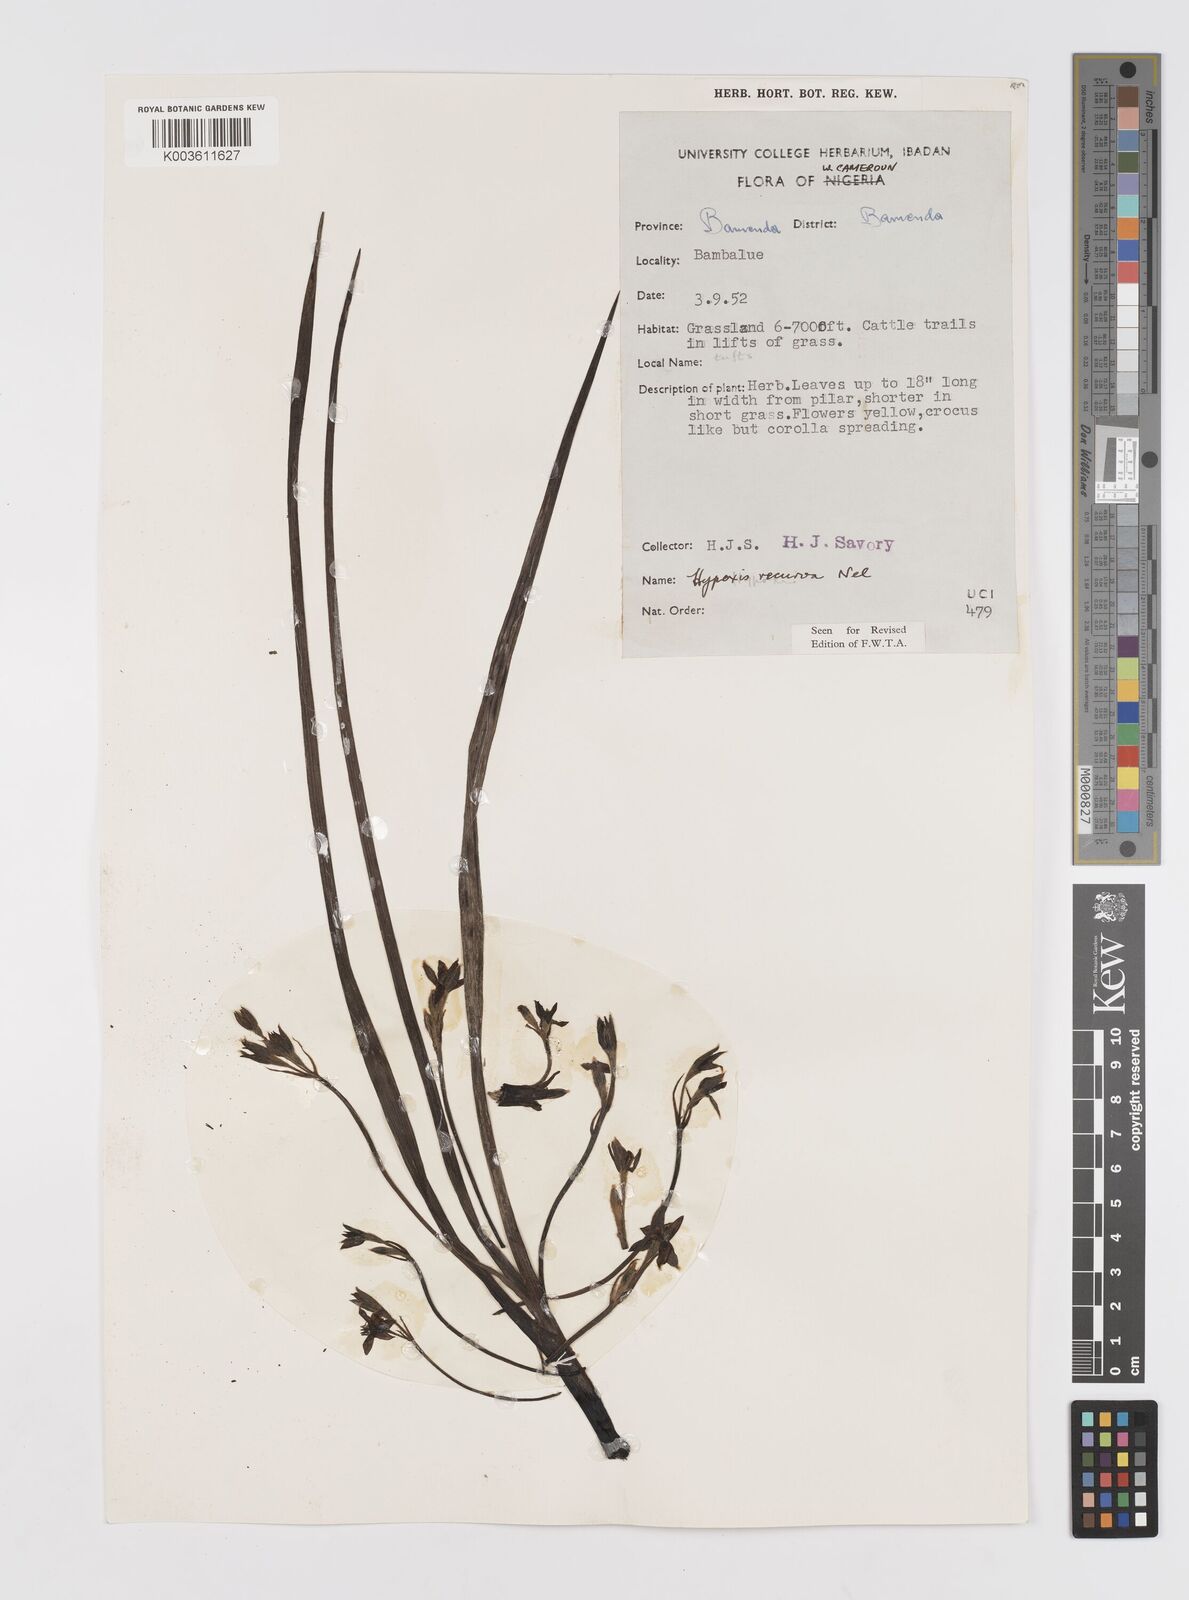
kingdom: Plantae
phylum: Tracheophyta
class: Liliopsida
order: Asparagales
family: Hypoxidaceae
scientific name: Hypoxidaceae
